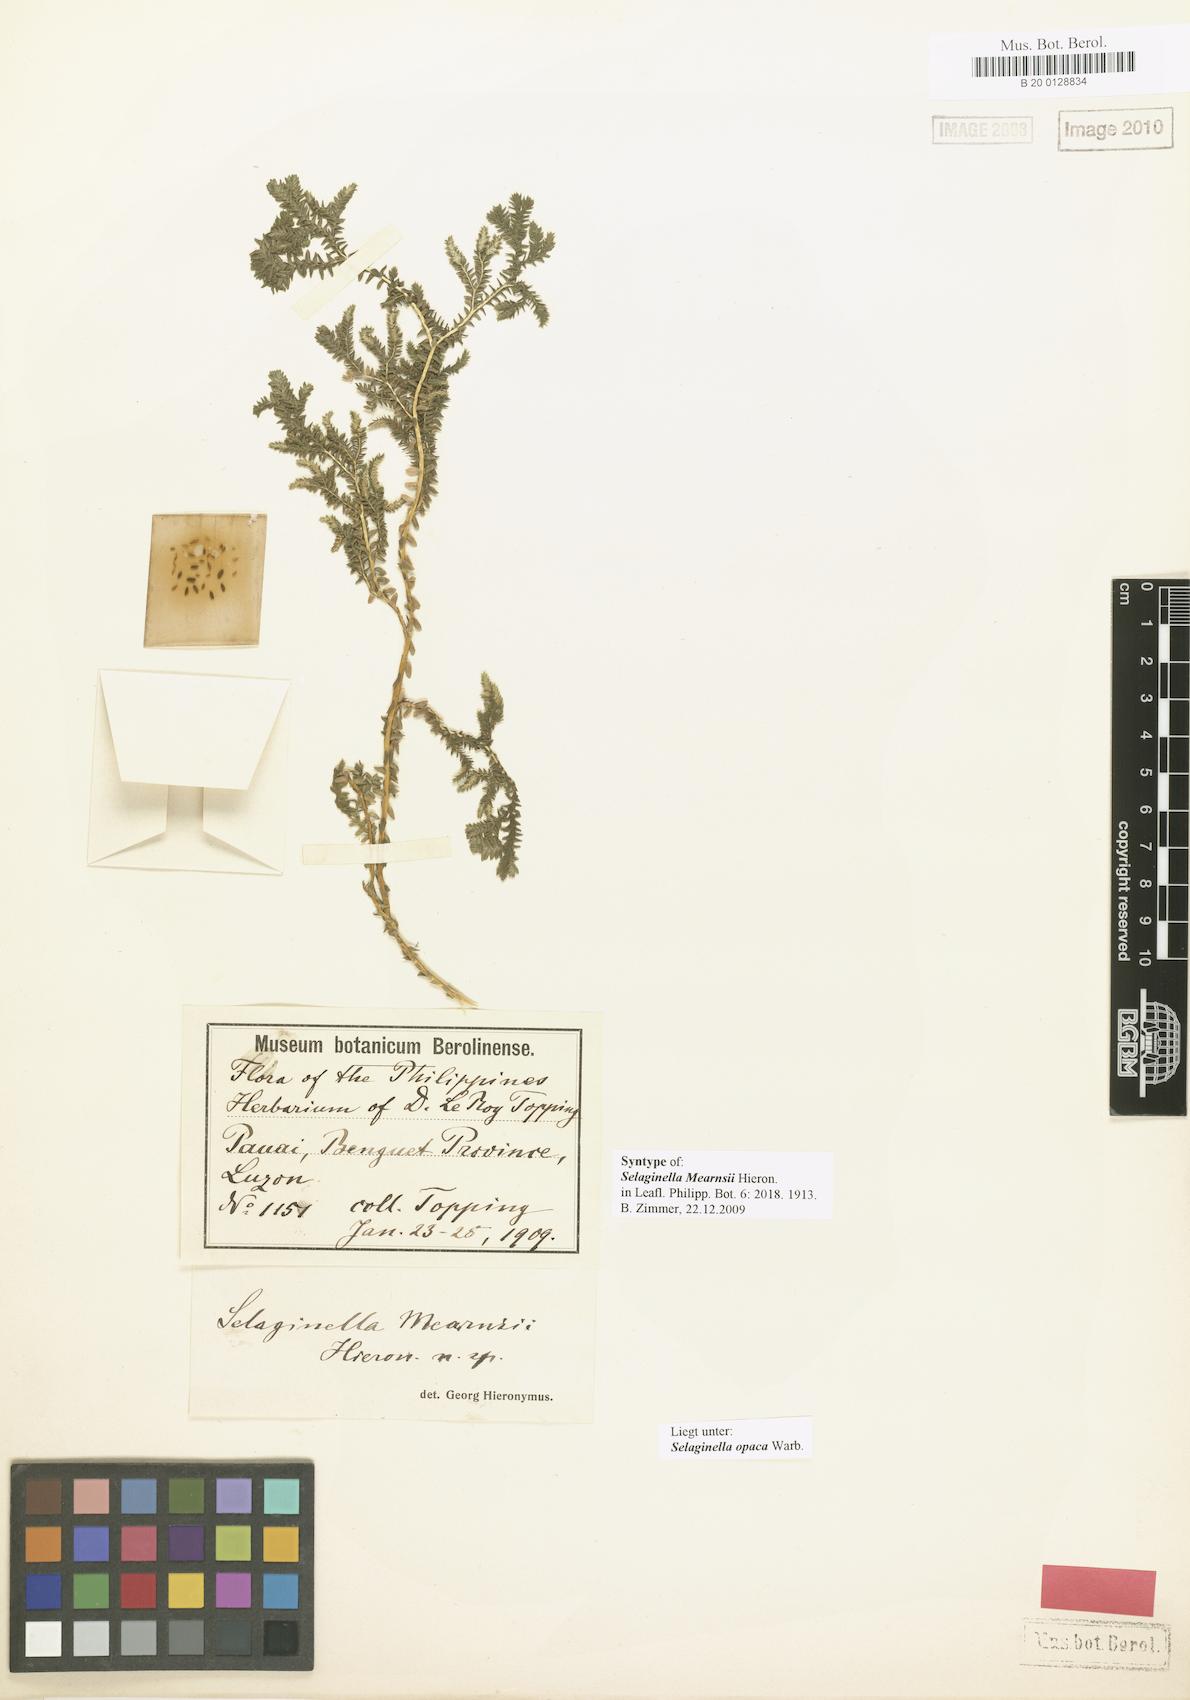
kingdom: Plantae
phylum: Tracheophyta
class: Lycopodiopsida
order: Selaginellales
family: Selaginellaceae
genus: Selaginella
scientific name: Selaginella opaca
